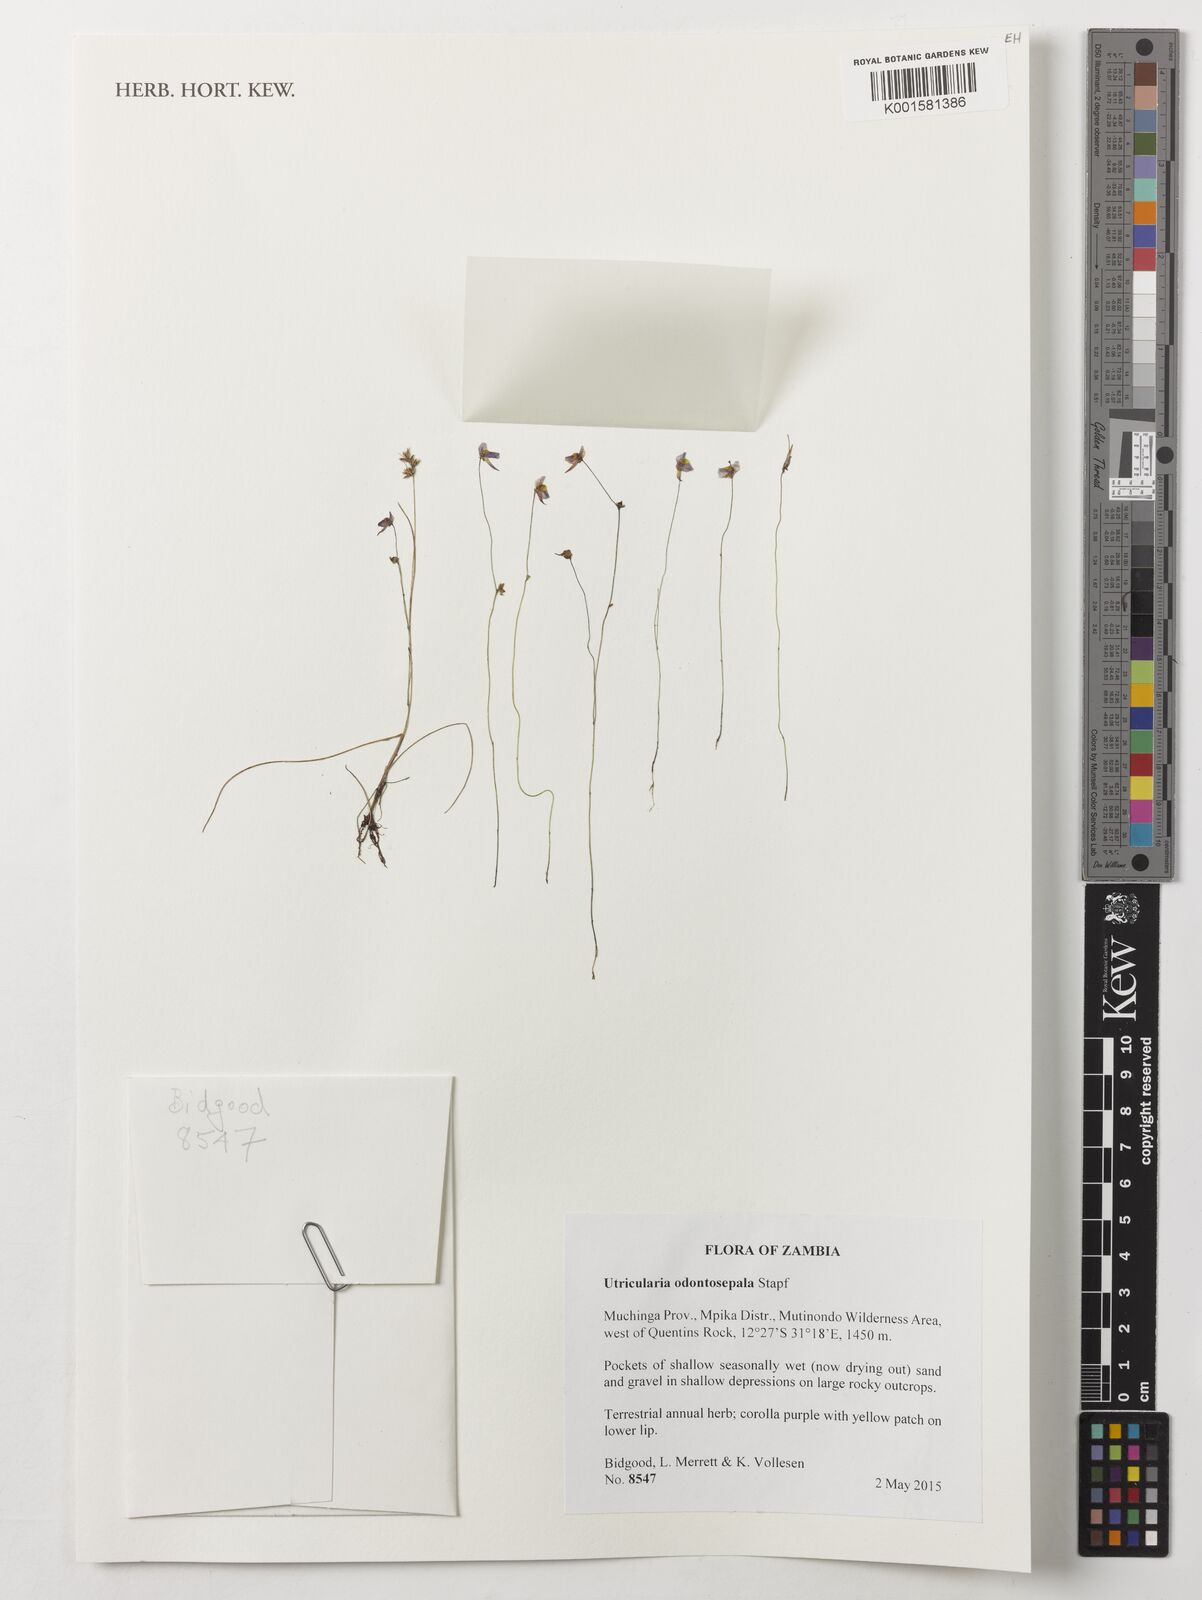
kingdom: Plantae
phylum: Tracheophyta
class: Magnoliopsida
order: Lamiales
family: Lentibulariaceae
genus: Utricularia
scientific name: Utricularia odontosepala
